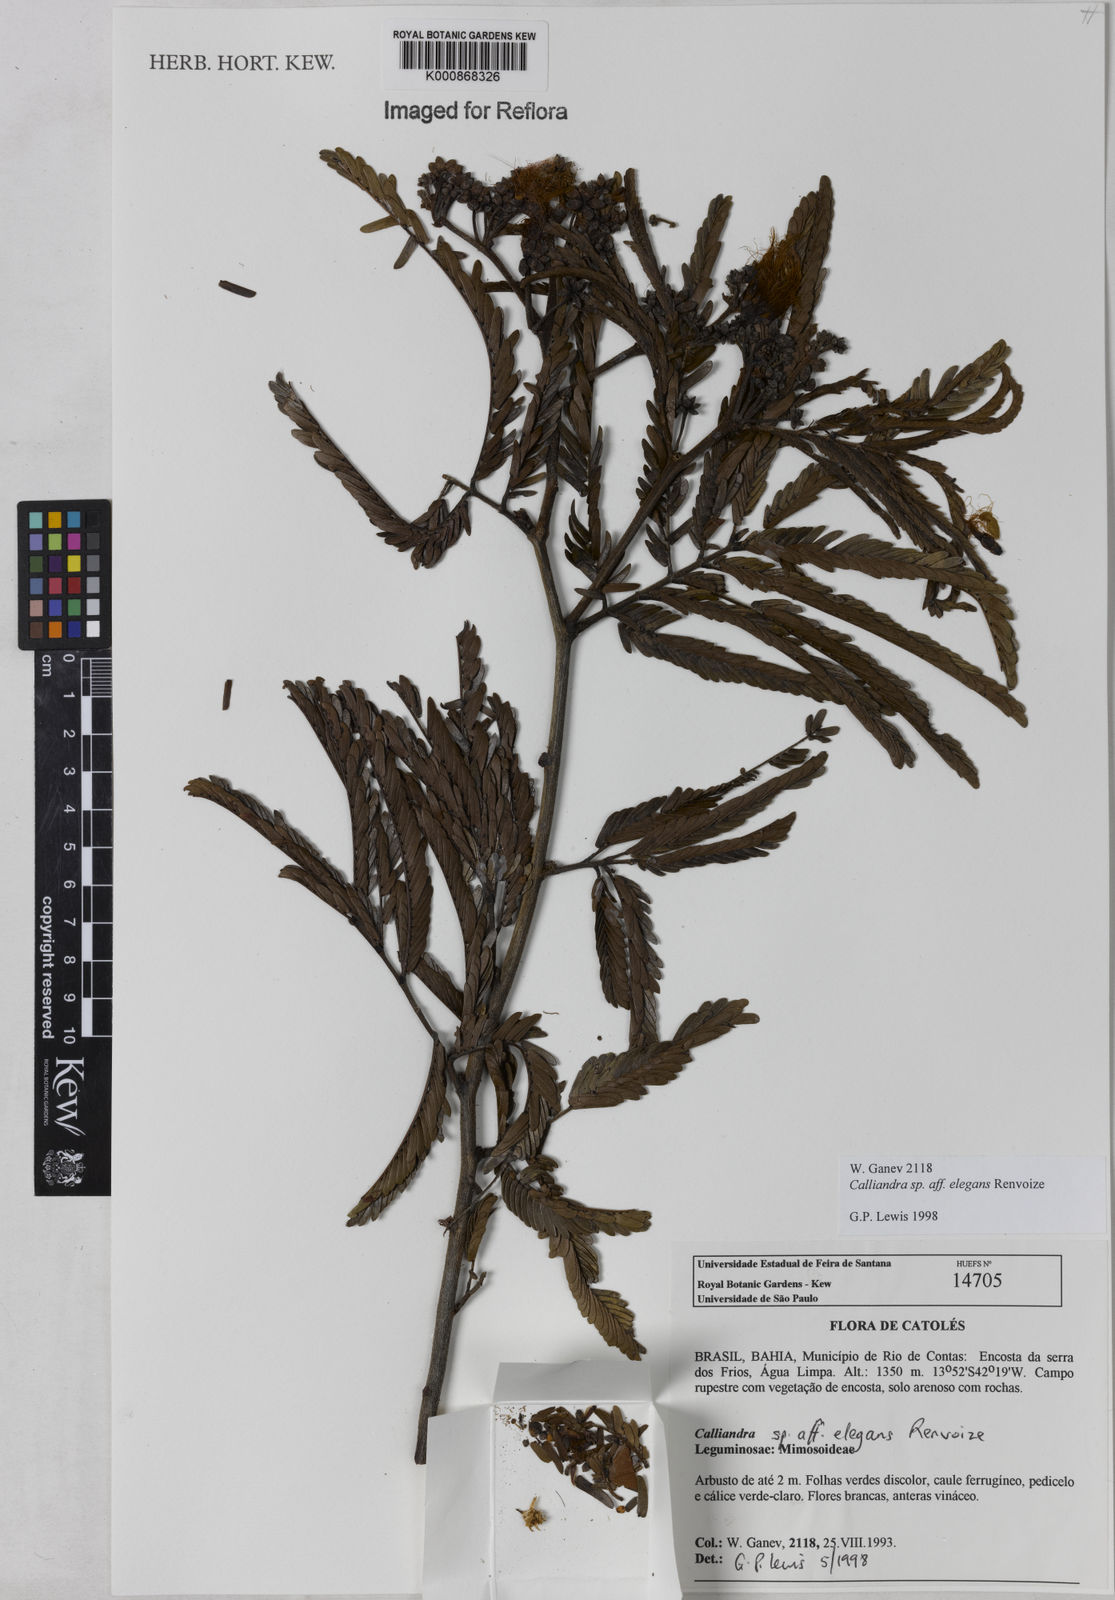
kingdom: Plantae
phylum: Tracheophyta
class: Magnoliopsida
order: Fabales
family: Fabaceae
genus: Calliandra
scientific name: Calliandra elegans
